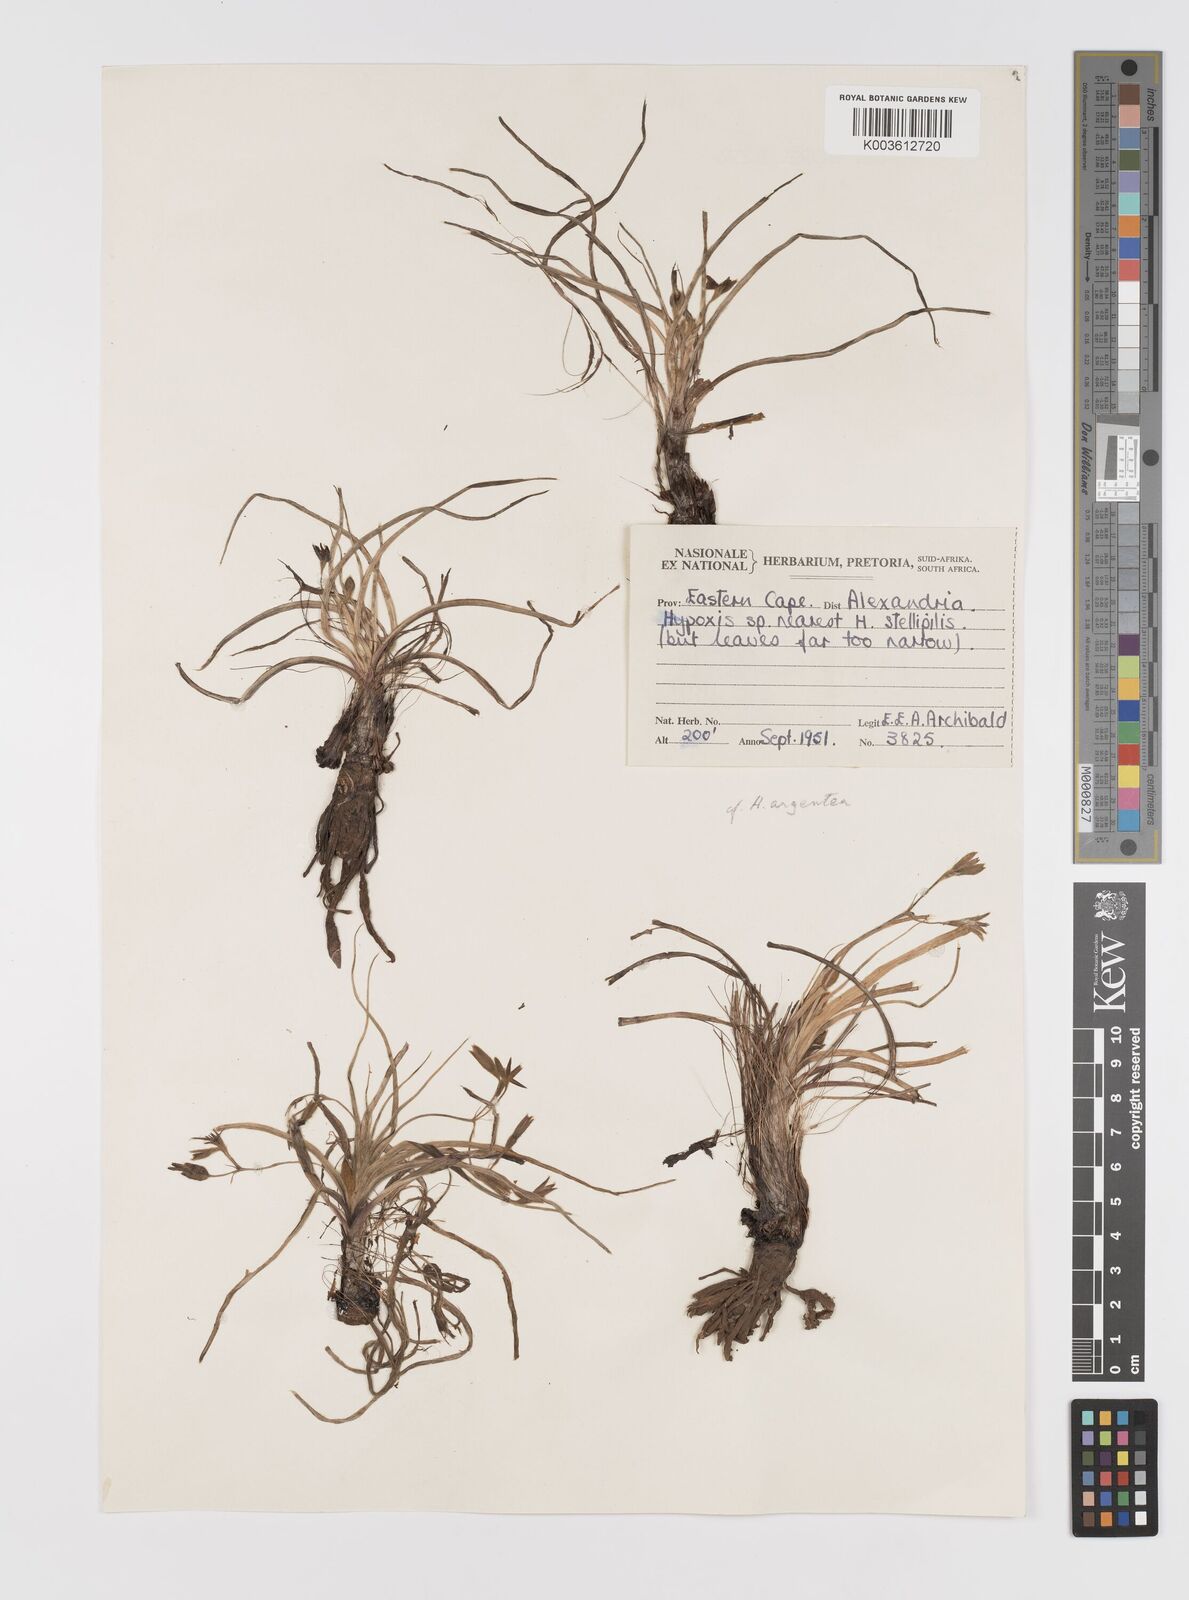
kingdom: Plantae
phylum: Tracheophyta
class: Liliopsida
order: Asparagales
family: Hypoxidaceae
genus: Hypoxis
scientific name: Hypoxis argentea
